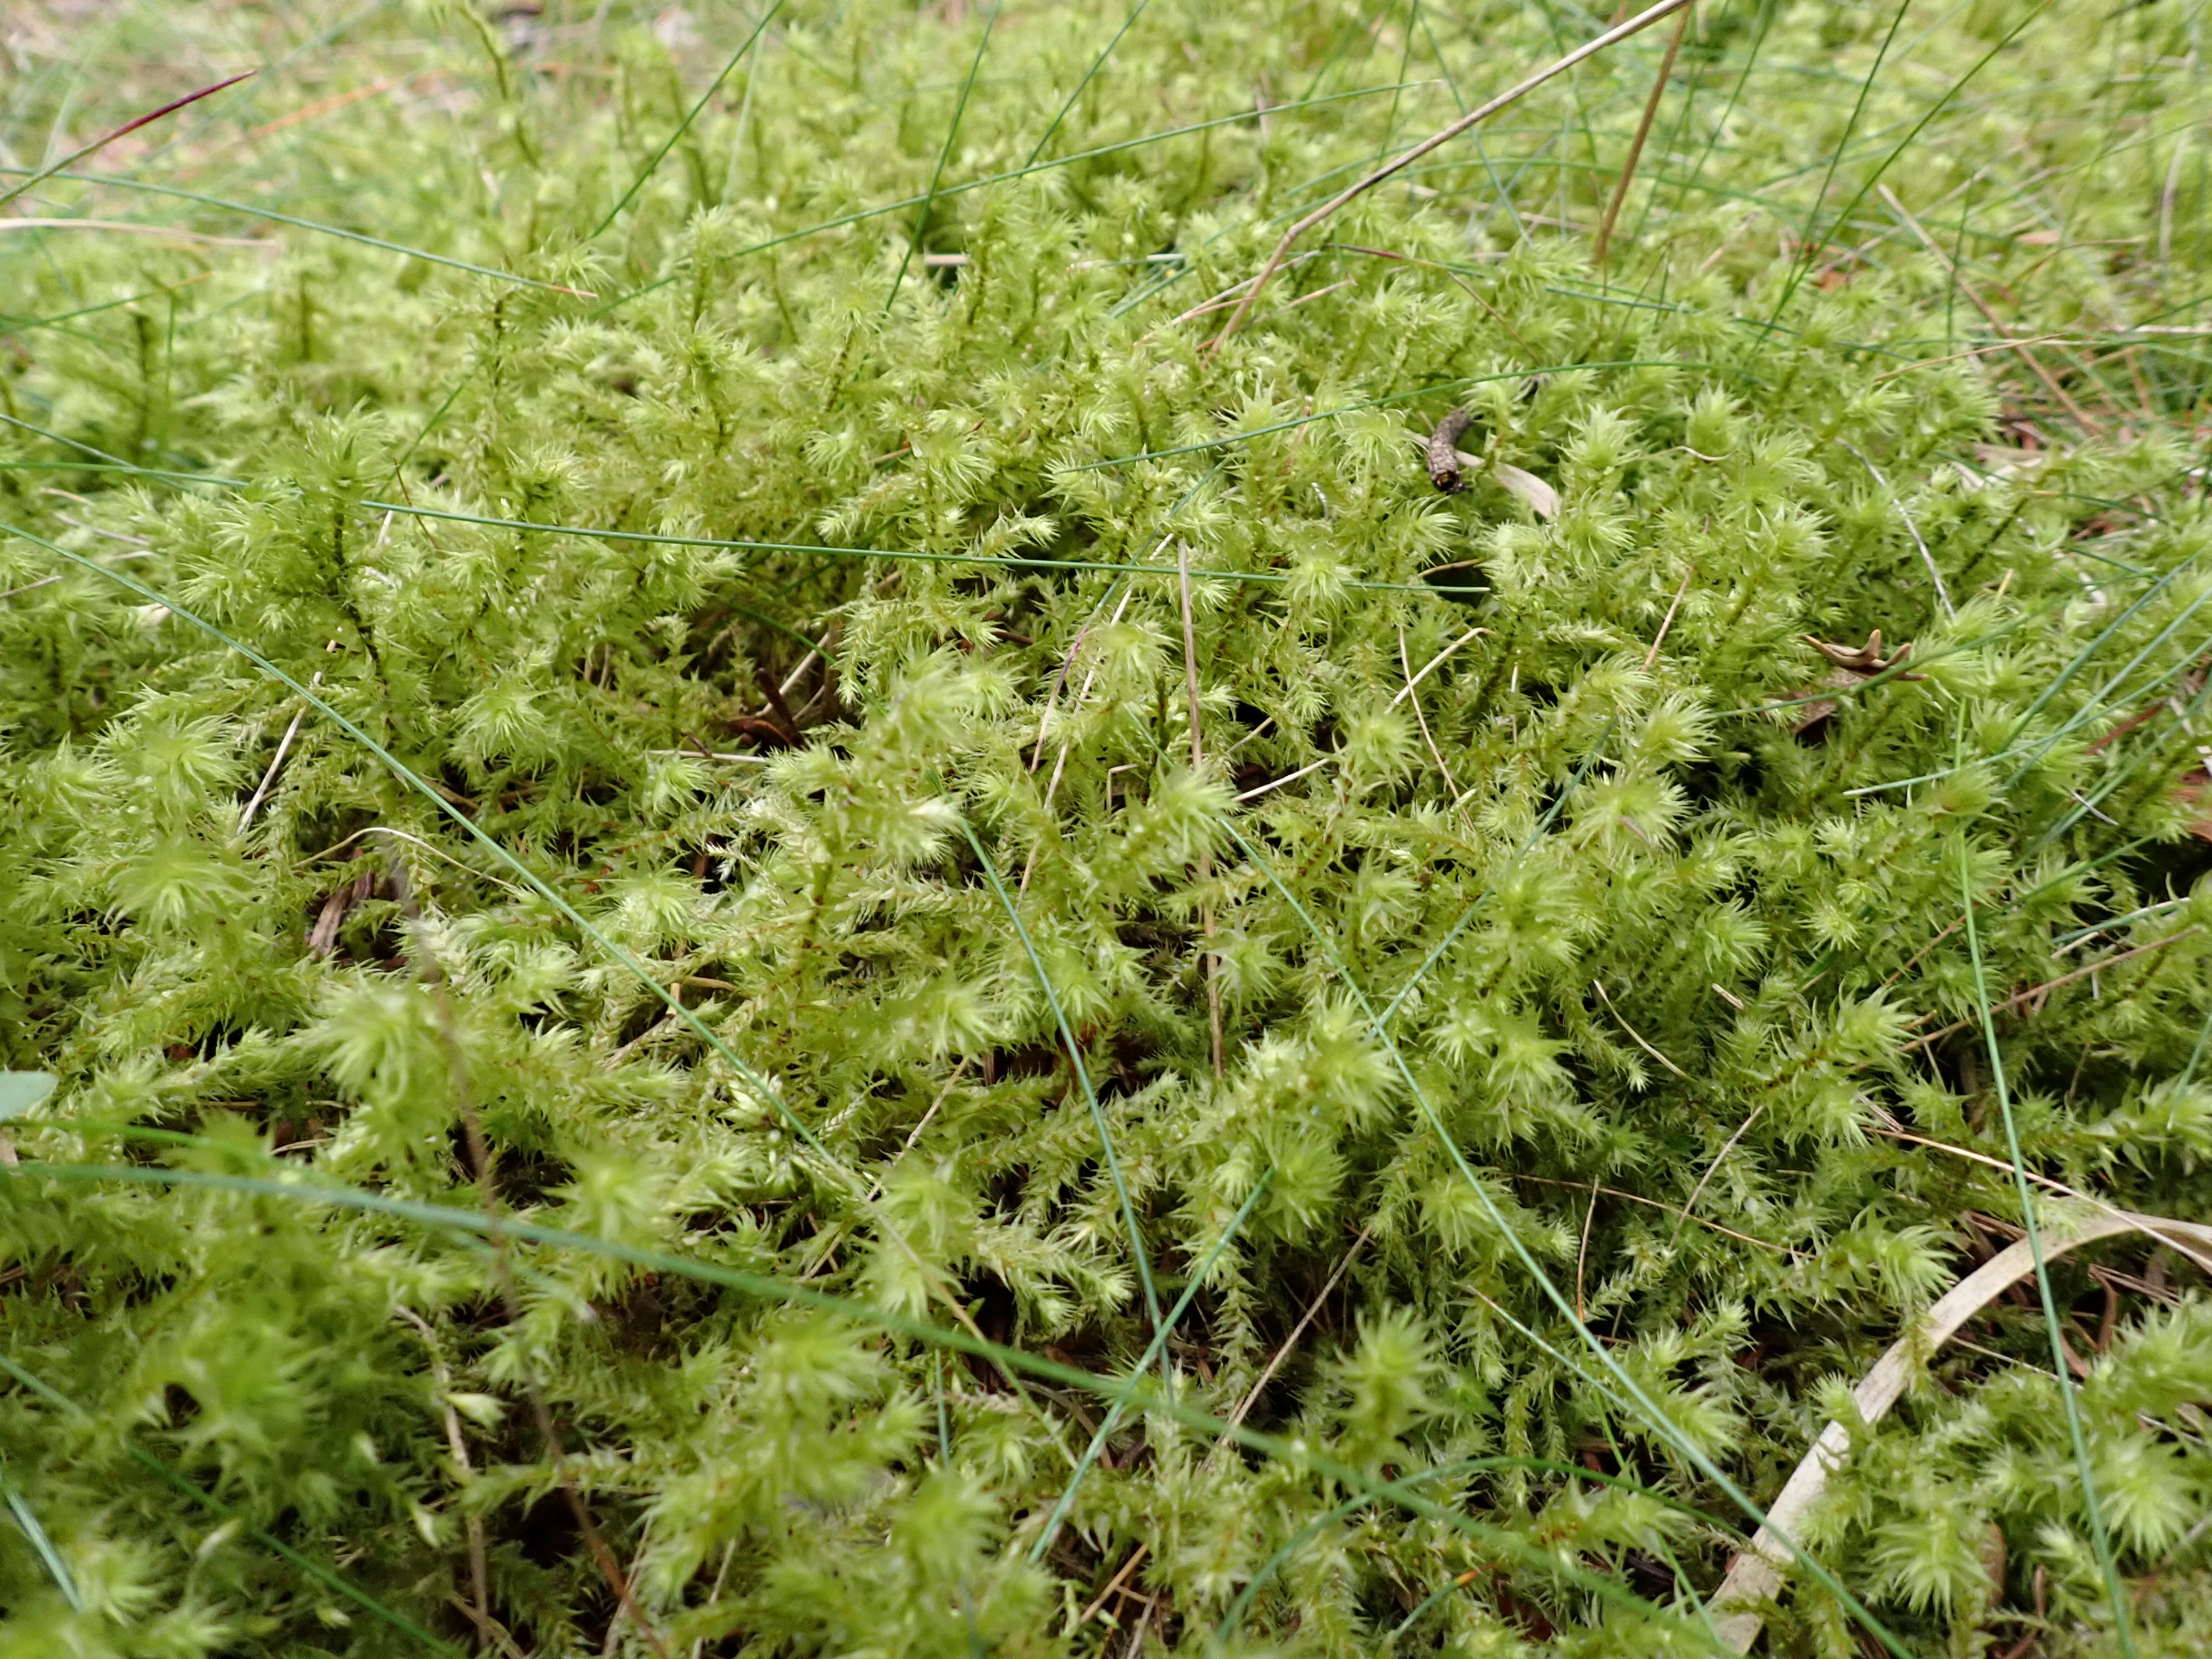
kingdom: Plantae
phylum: Bryophyta
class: Bryopsida
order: Hypnales
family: Hylocomiaceae
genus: Hylocomiadelphus
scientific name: Hylocomiadelphus triquetrus
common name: Stor kransemos
